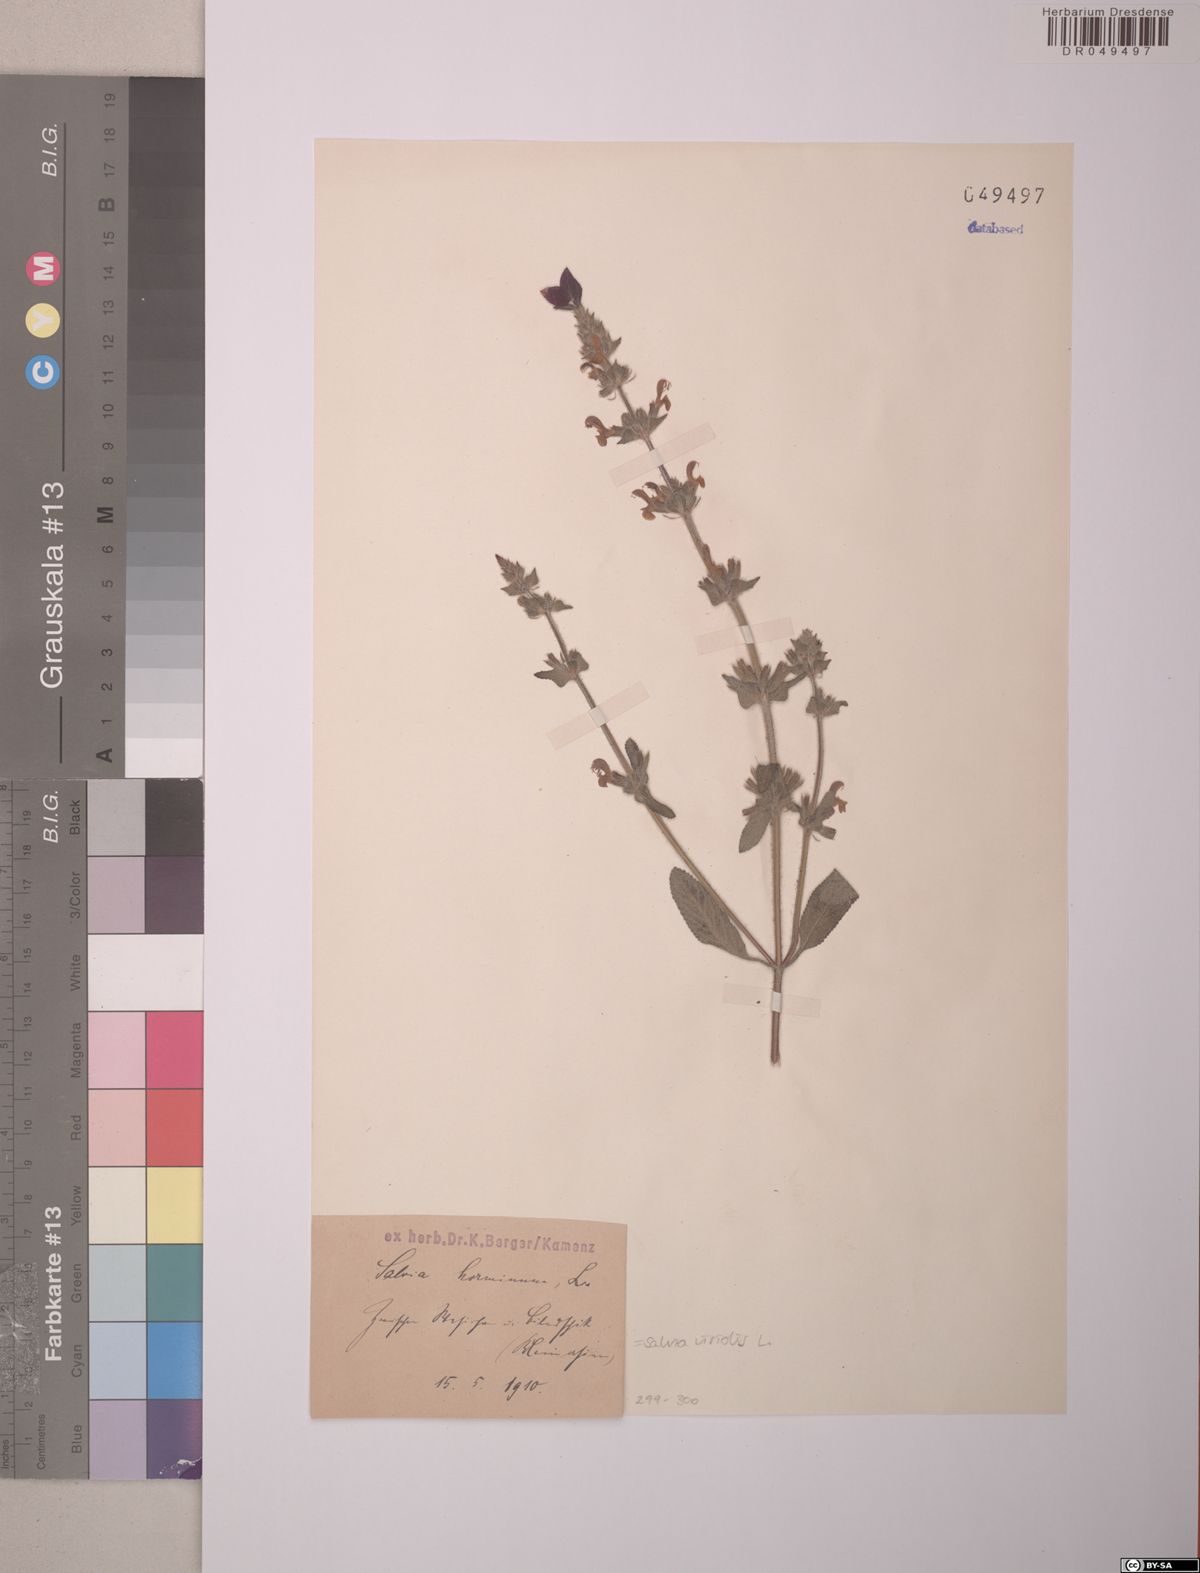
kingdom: Plantae
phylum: Tracheophyta
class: Magnoliopsida
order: Lamiales
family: Lamiaceae
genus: Salvia
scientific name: Salvia viridis
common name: Annual clary
